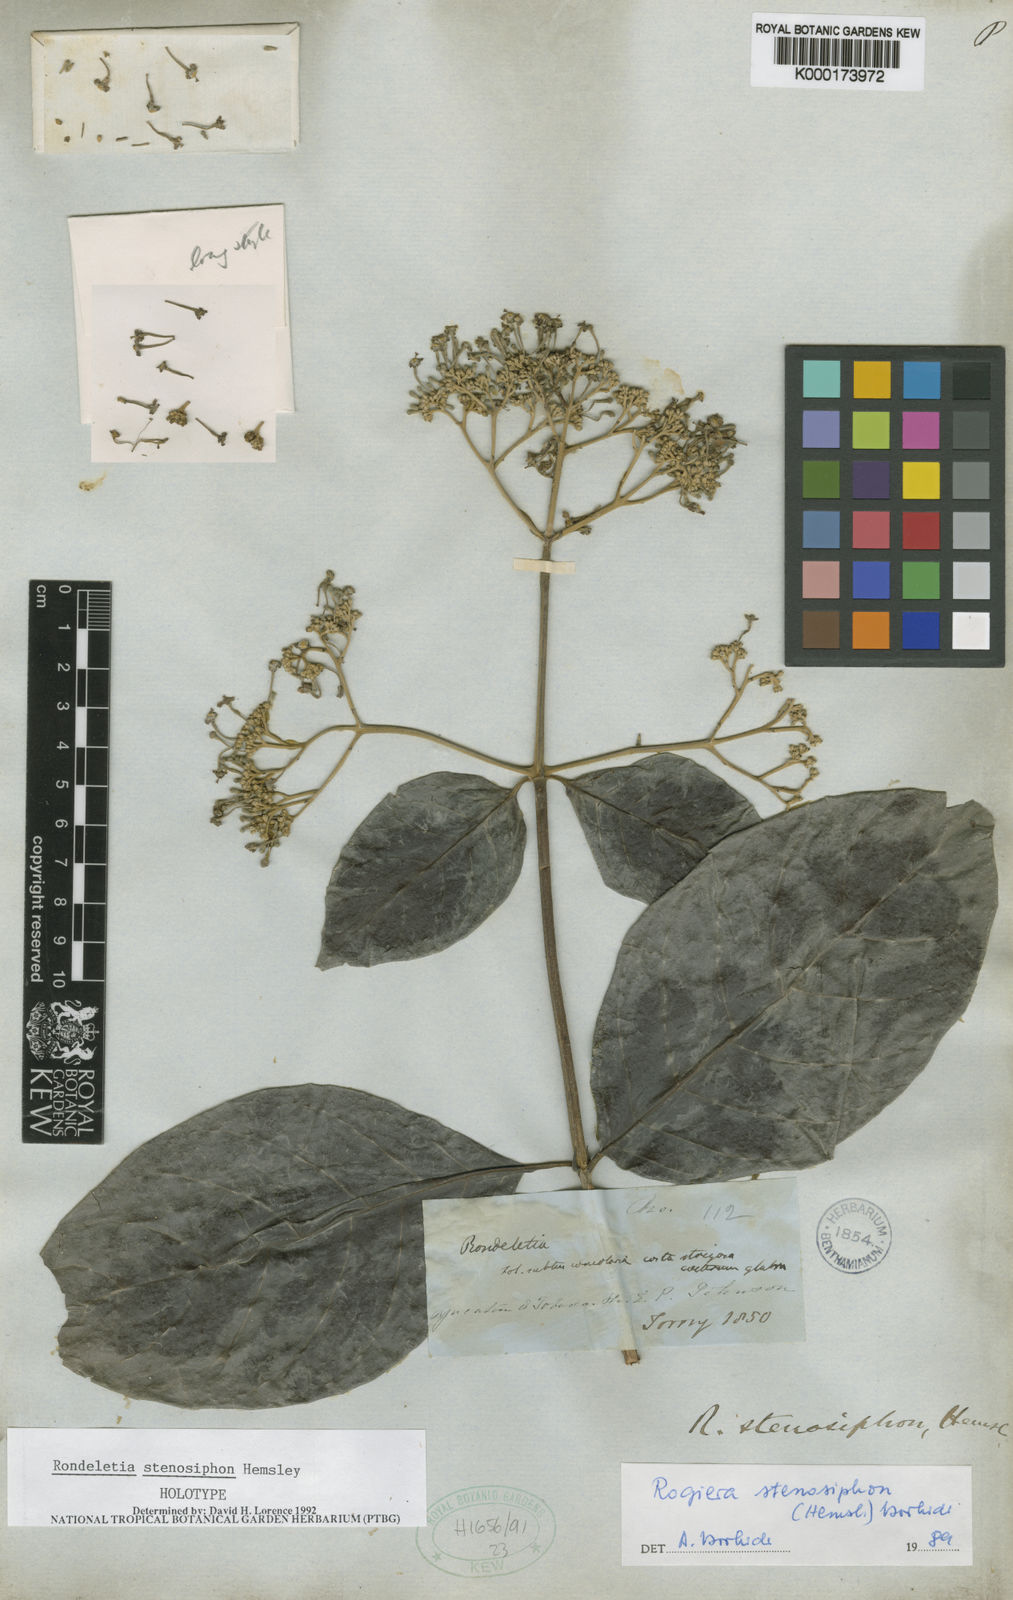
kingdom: Plantae
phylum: Tracheophyta
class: Magnoliopsida
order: Gentianales
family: Rubiaceae
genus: Rogiera
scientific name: Rogiera stenosiphon
